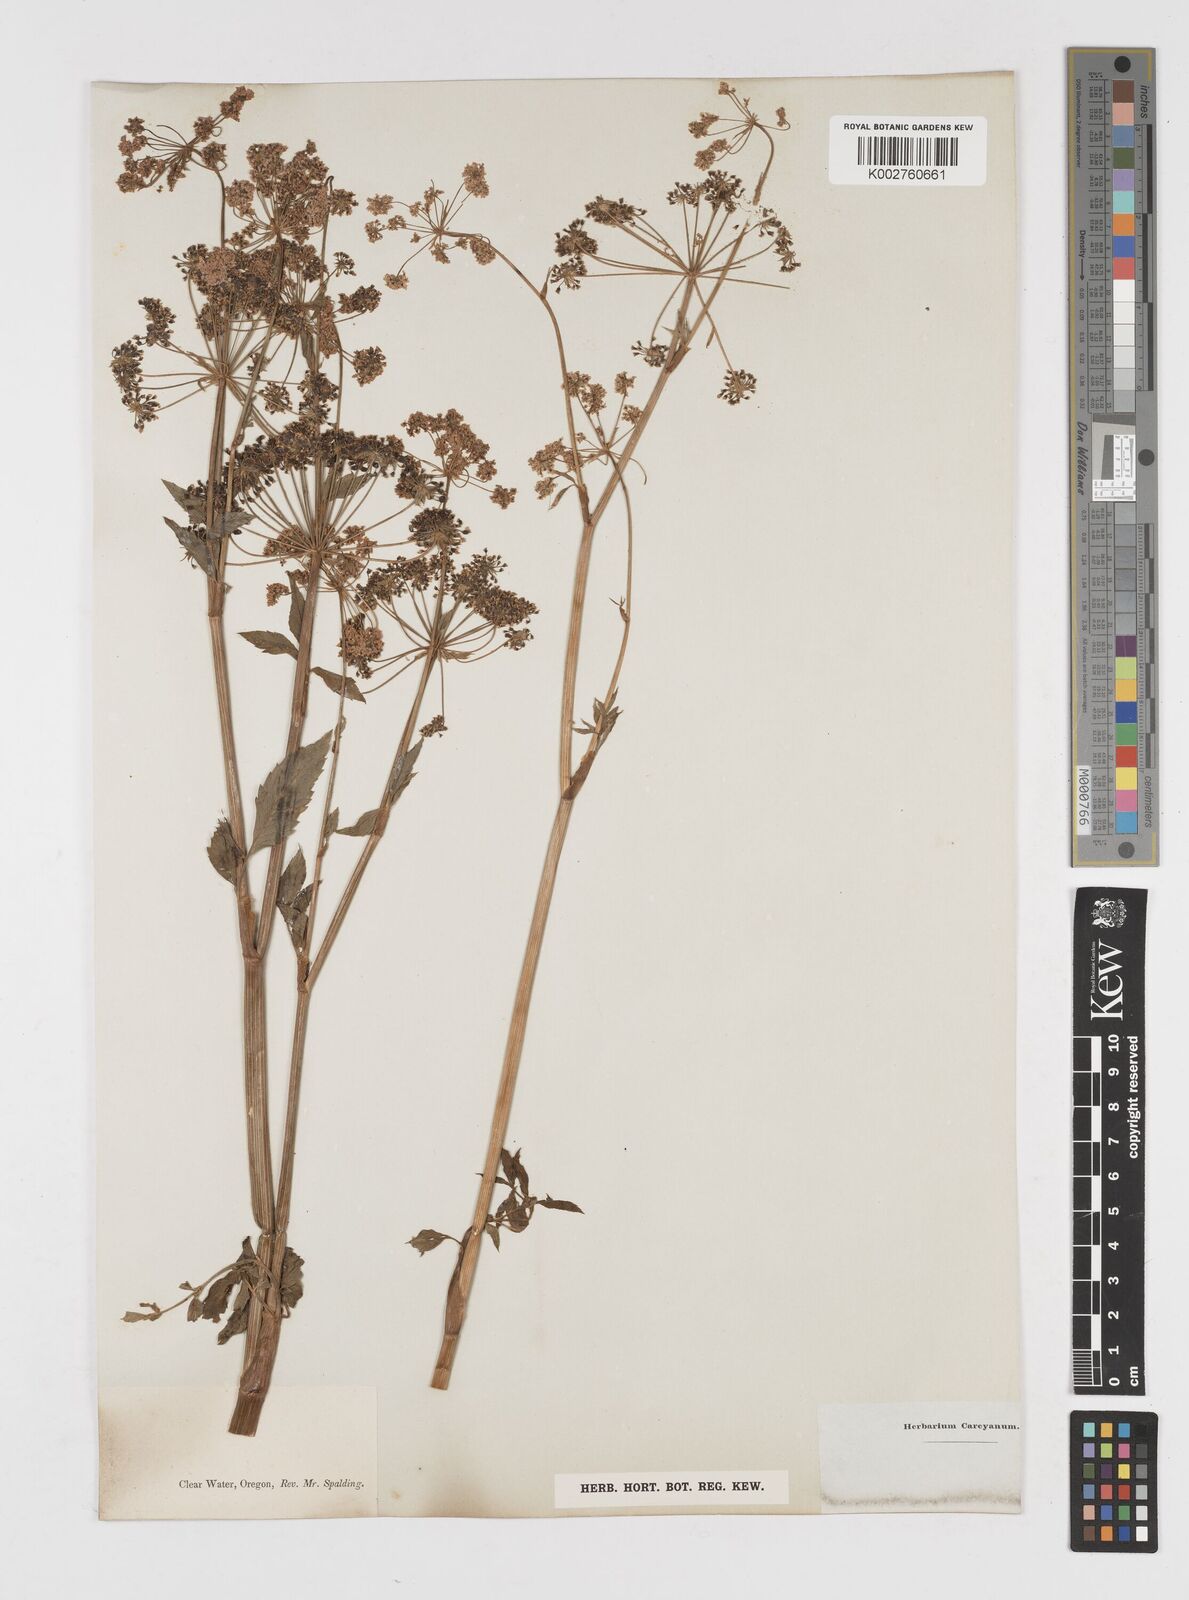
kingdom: Plantae
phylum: Tracheophyta
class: Magnoliopsida
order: Apiales
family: Apiaceae
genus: Cicuta
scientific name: Cicuta douglasii
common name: Western water-hemlock
